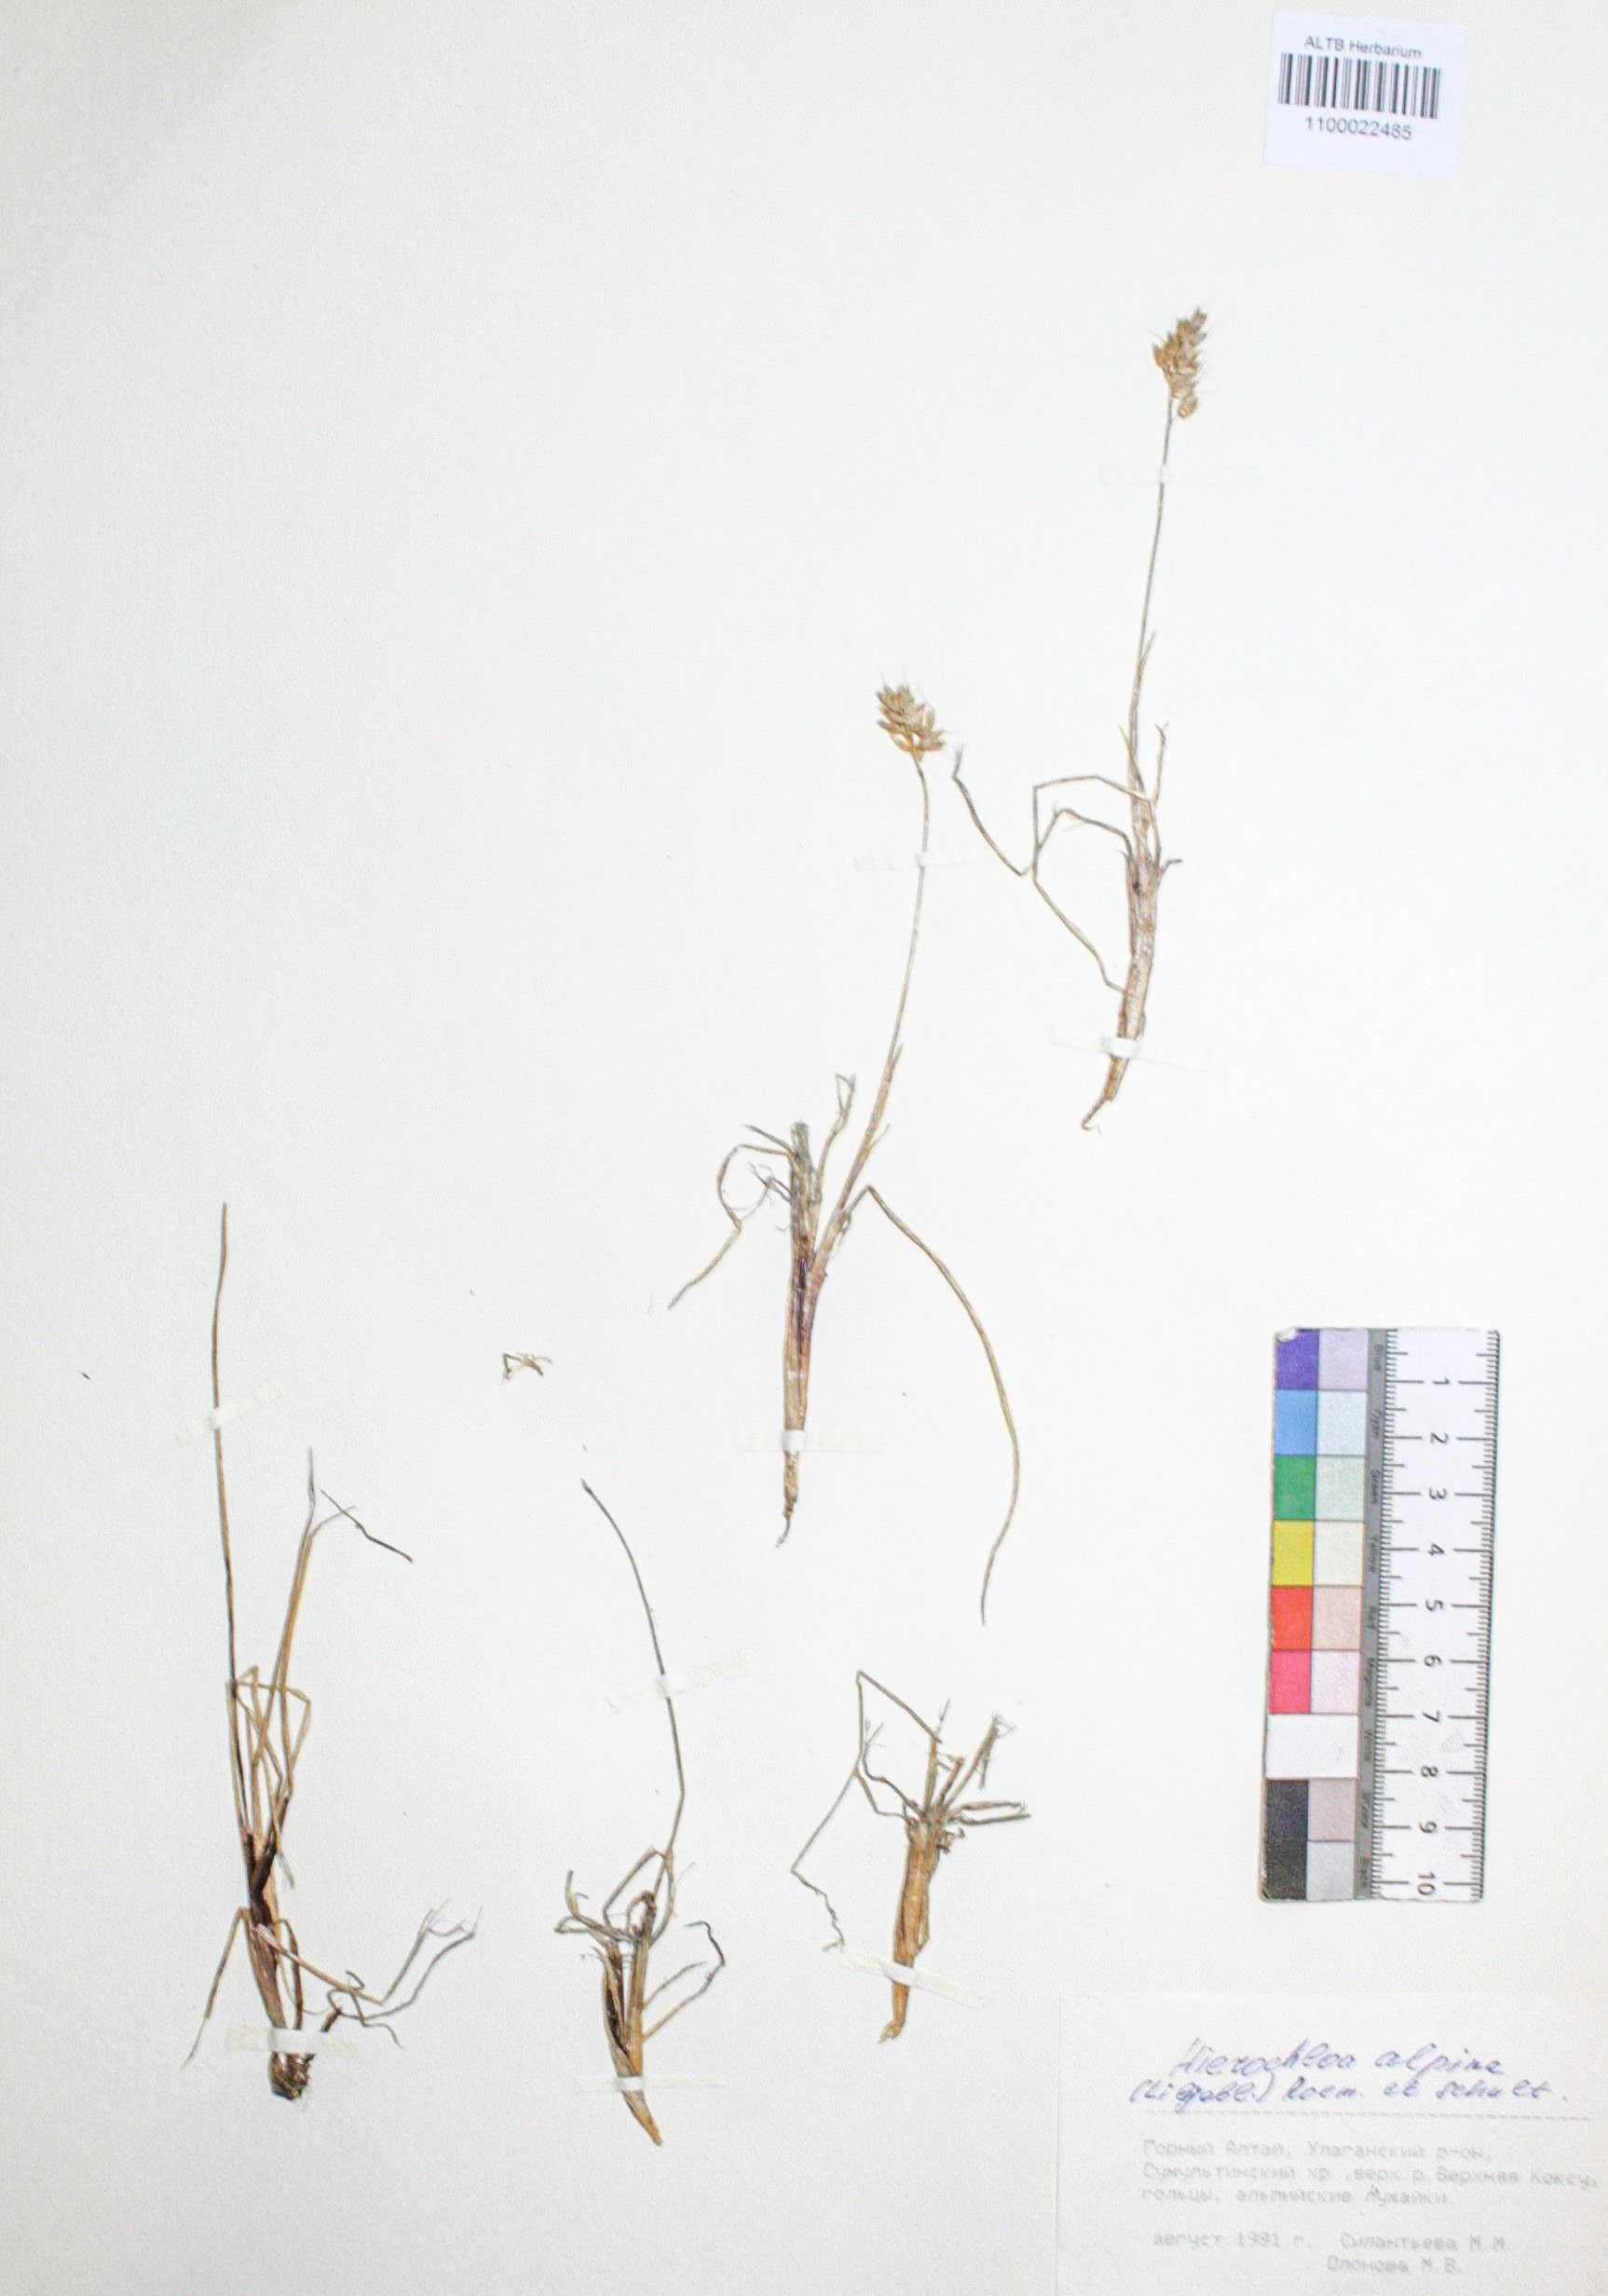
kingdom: Plantae
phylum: Tracheophyta
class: Liliopsida
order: Poales
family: Poaceae
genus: Anthoxanthum
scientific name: Anthoxanthum monticola
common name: Alpine sweetgrass
